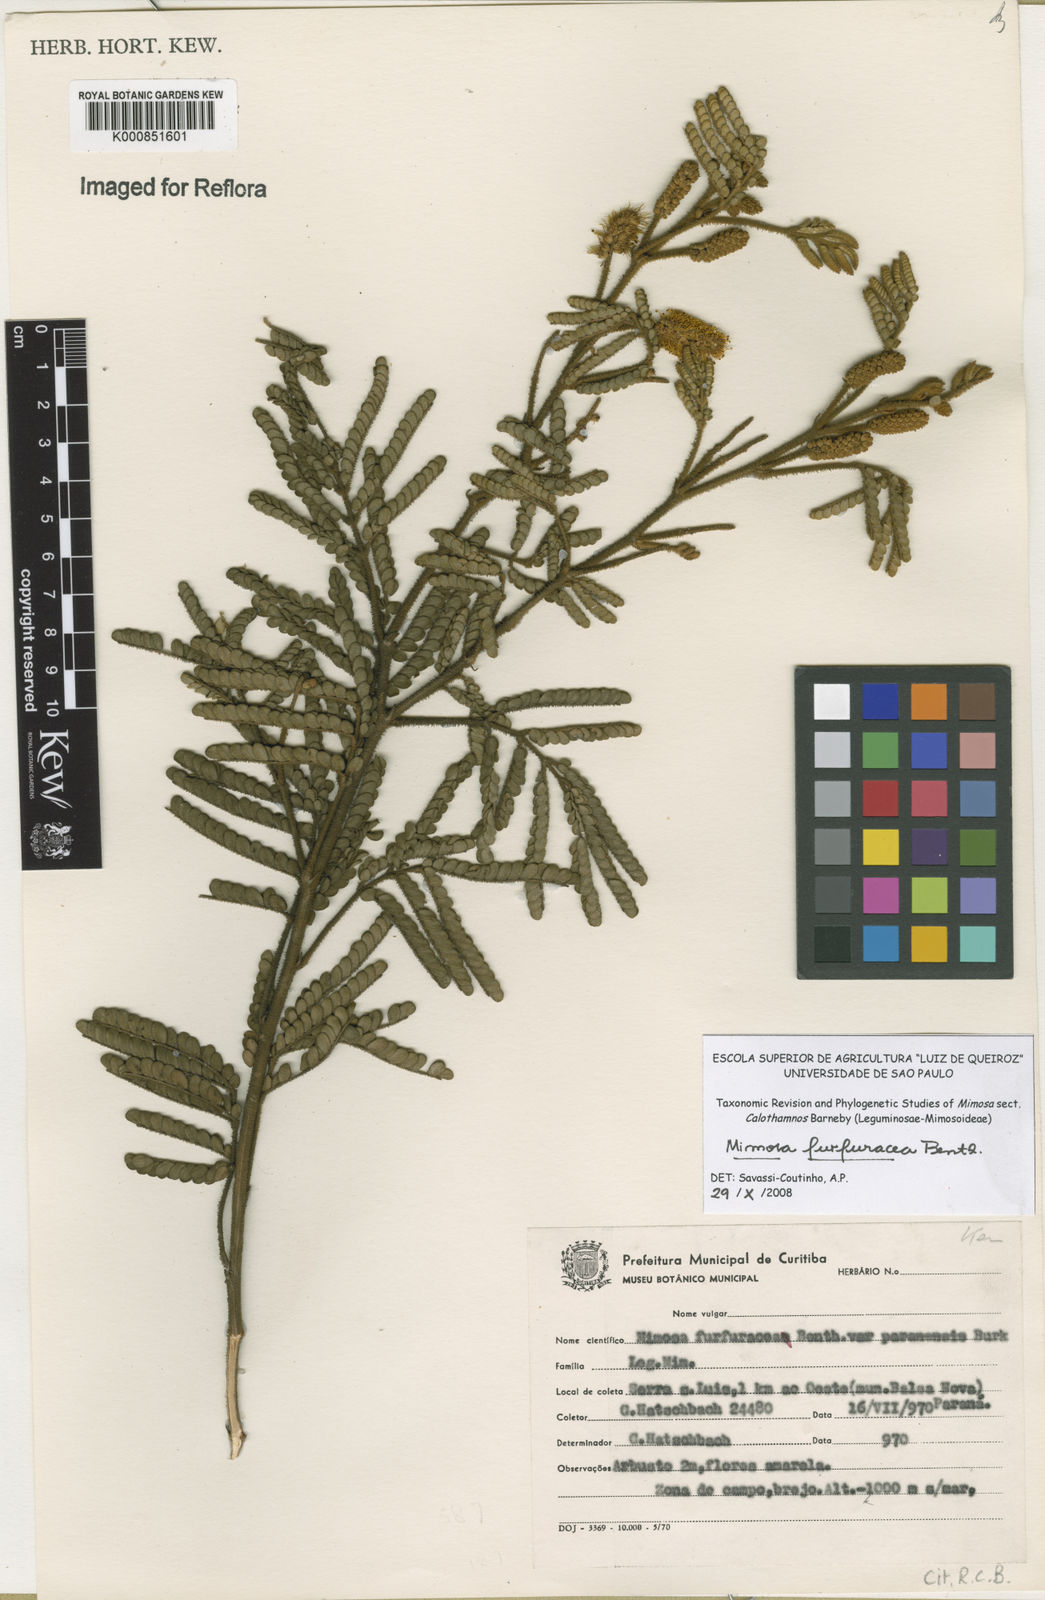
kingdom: Plantae
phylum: Tracheophyta
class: Magnoliopsida
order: Fabales
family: Fabaceae
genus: Mimosa
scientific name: Mimosa furfuracea
